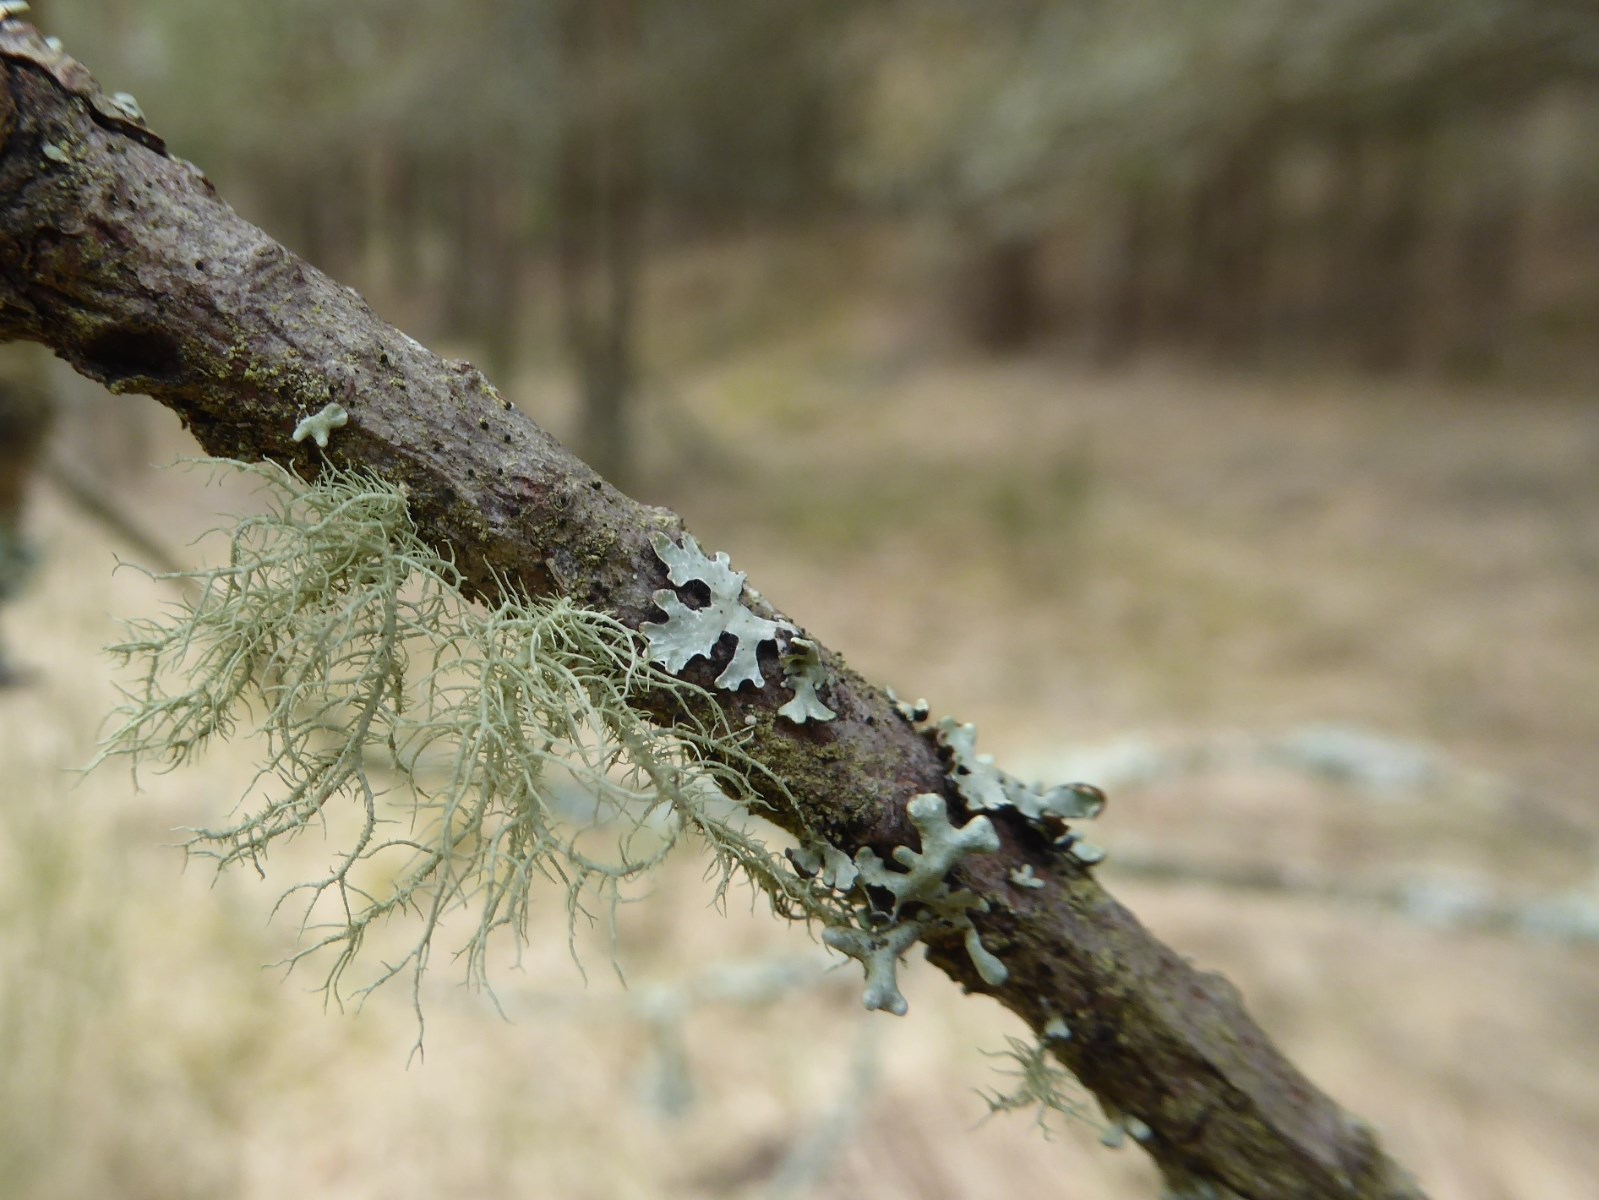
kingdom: Fungi
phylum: Ascomycota
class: Lecanoromycetes
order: Lecanorales
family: Parmeliaceae
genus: Usnea
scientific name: Usnea hirta
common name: liden skæglav
